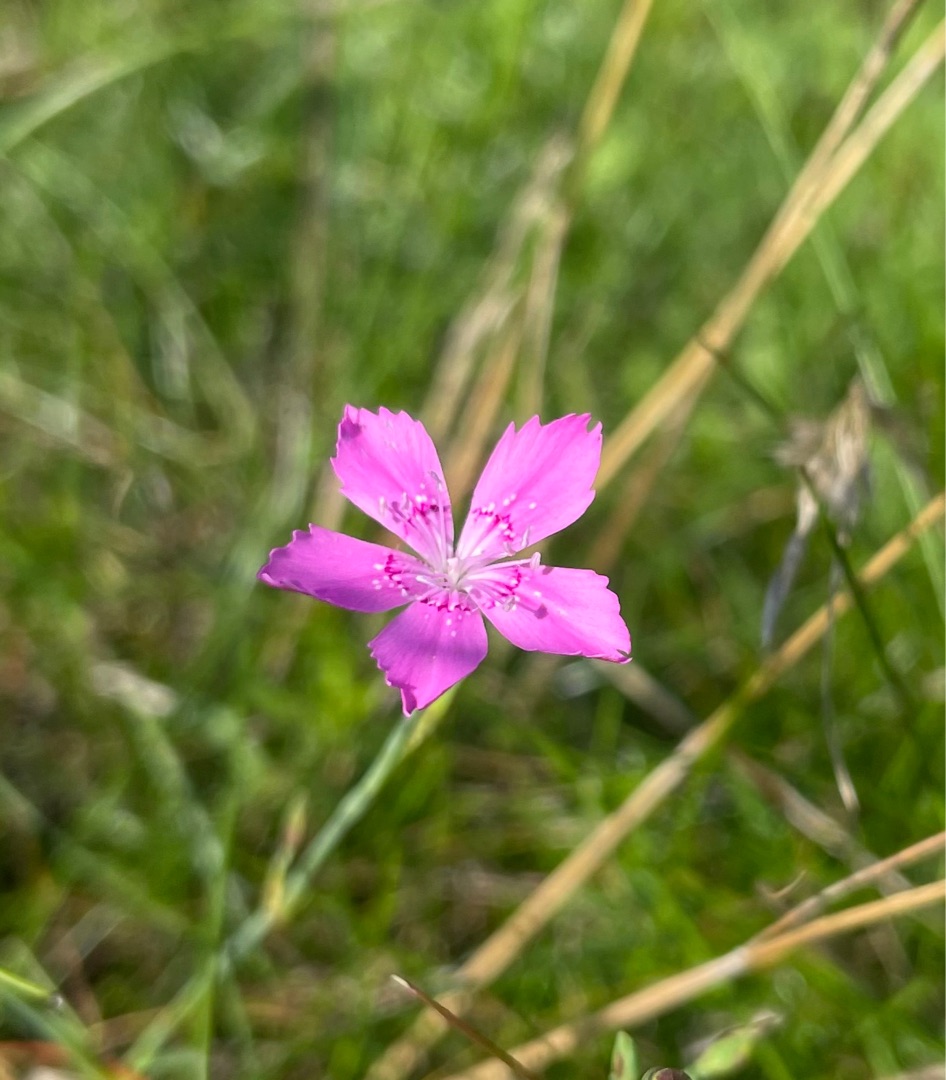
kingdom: Plantae
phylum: Tracheophyta
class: Magnoliopsida
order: Caryophyllales
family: Caryophyllaceae
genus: Dianthus
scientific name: Dianthus deltoides
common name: Bakke-nellike
